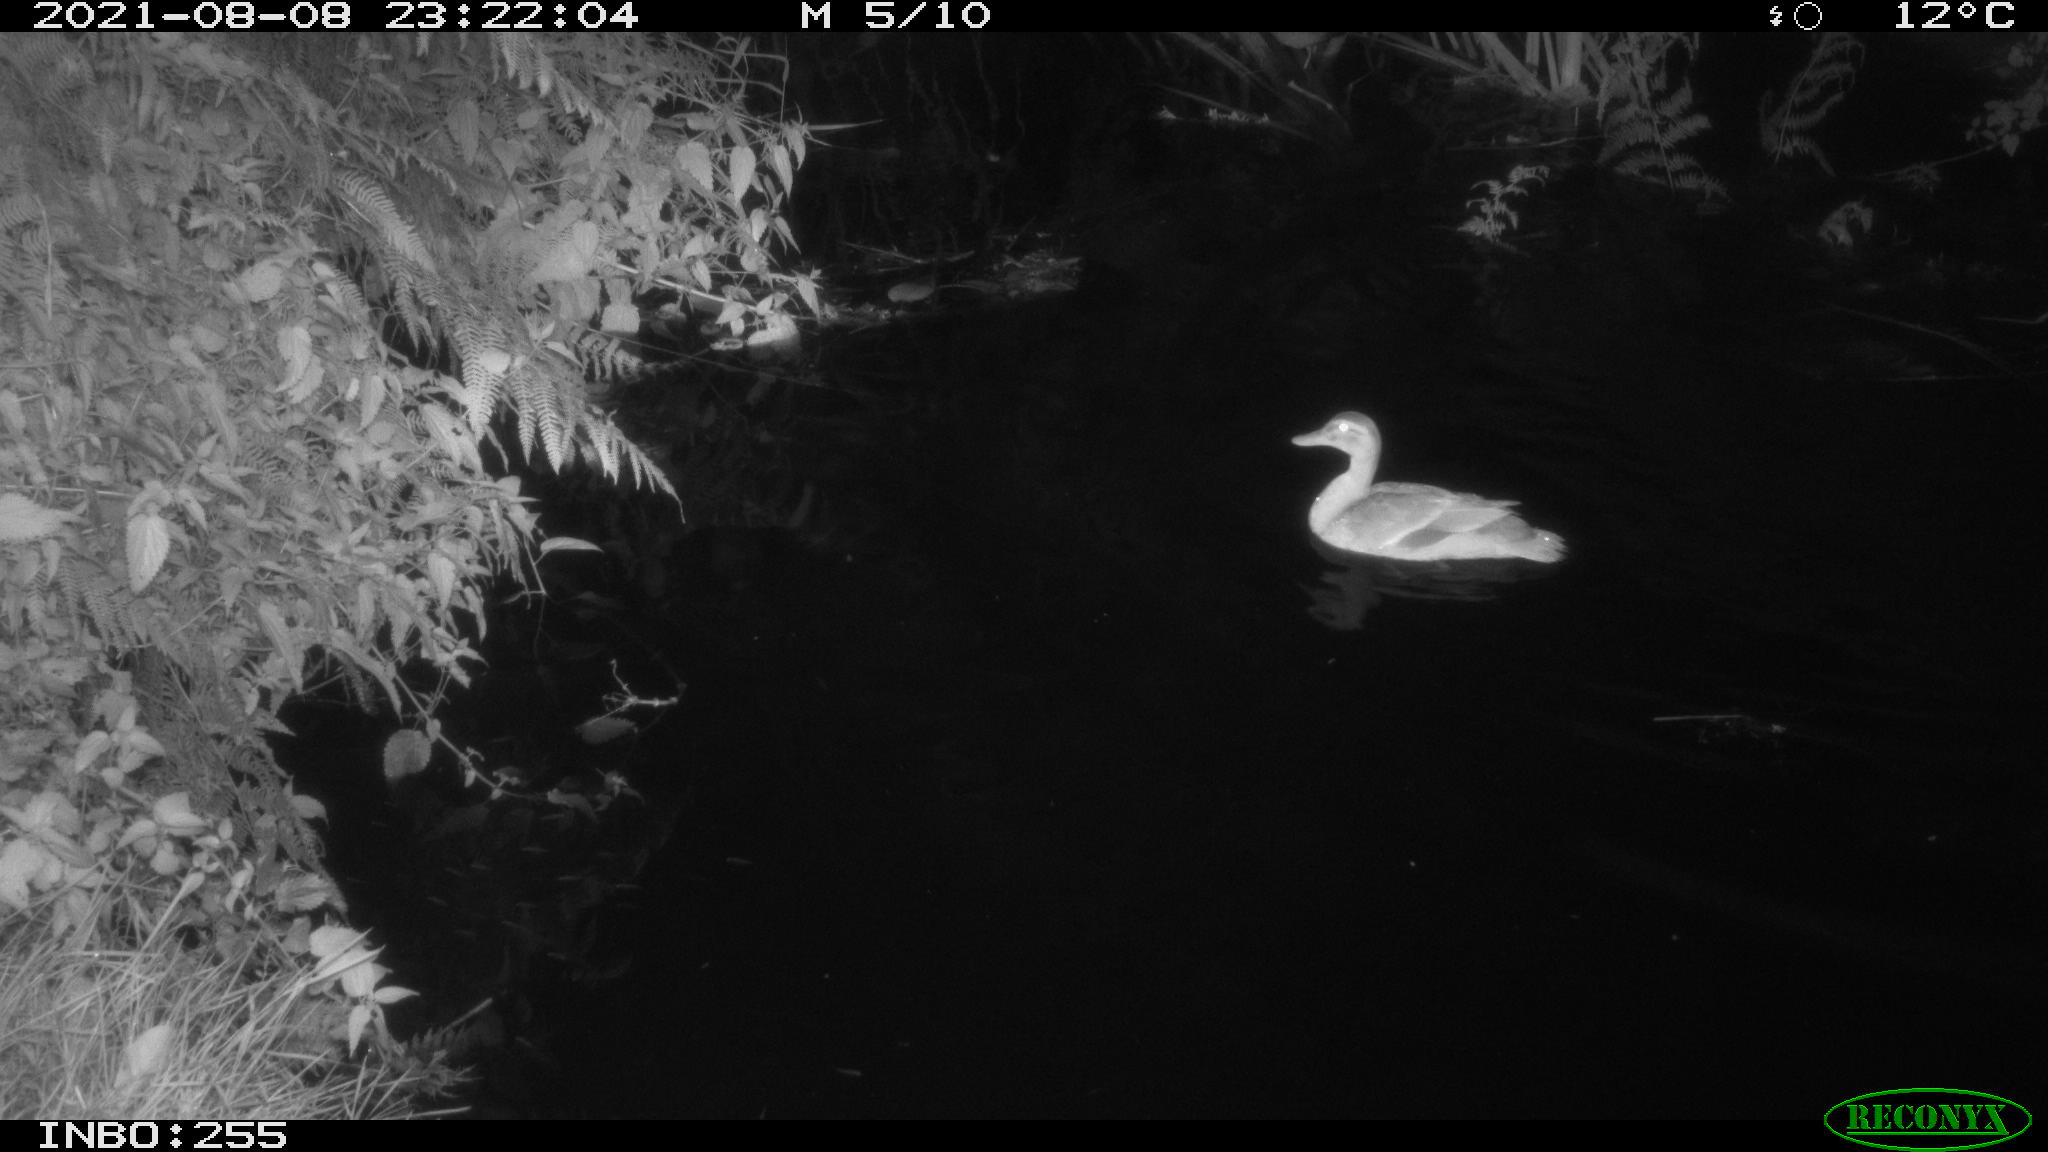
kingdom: Animalia
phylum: Chordata
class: Aves
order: Anseriformes
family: Anatidae
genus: Anas
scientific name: Anas platyrhynchos
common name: Mallard
